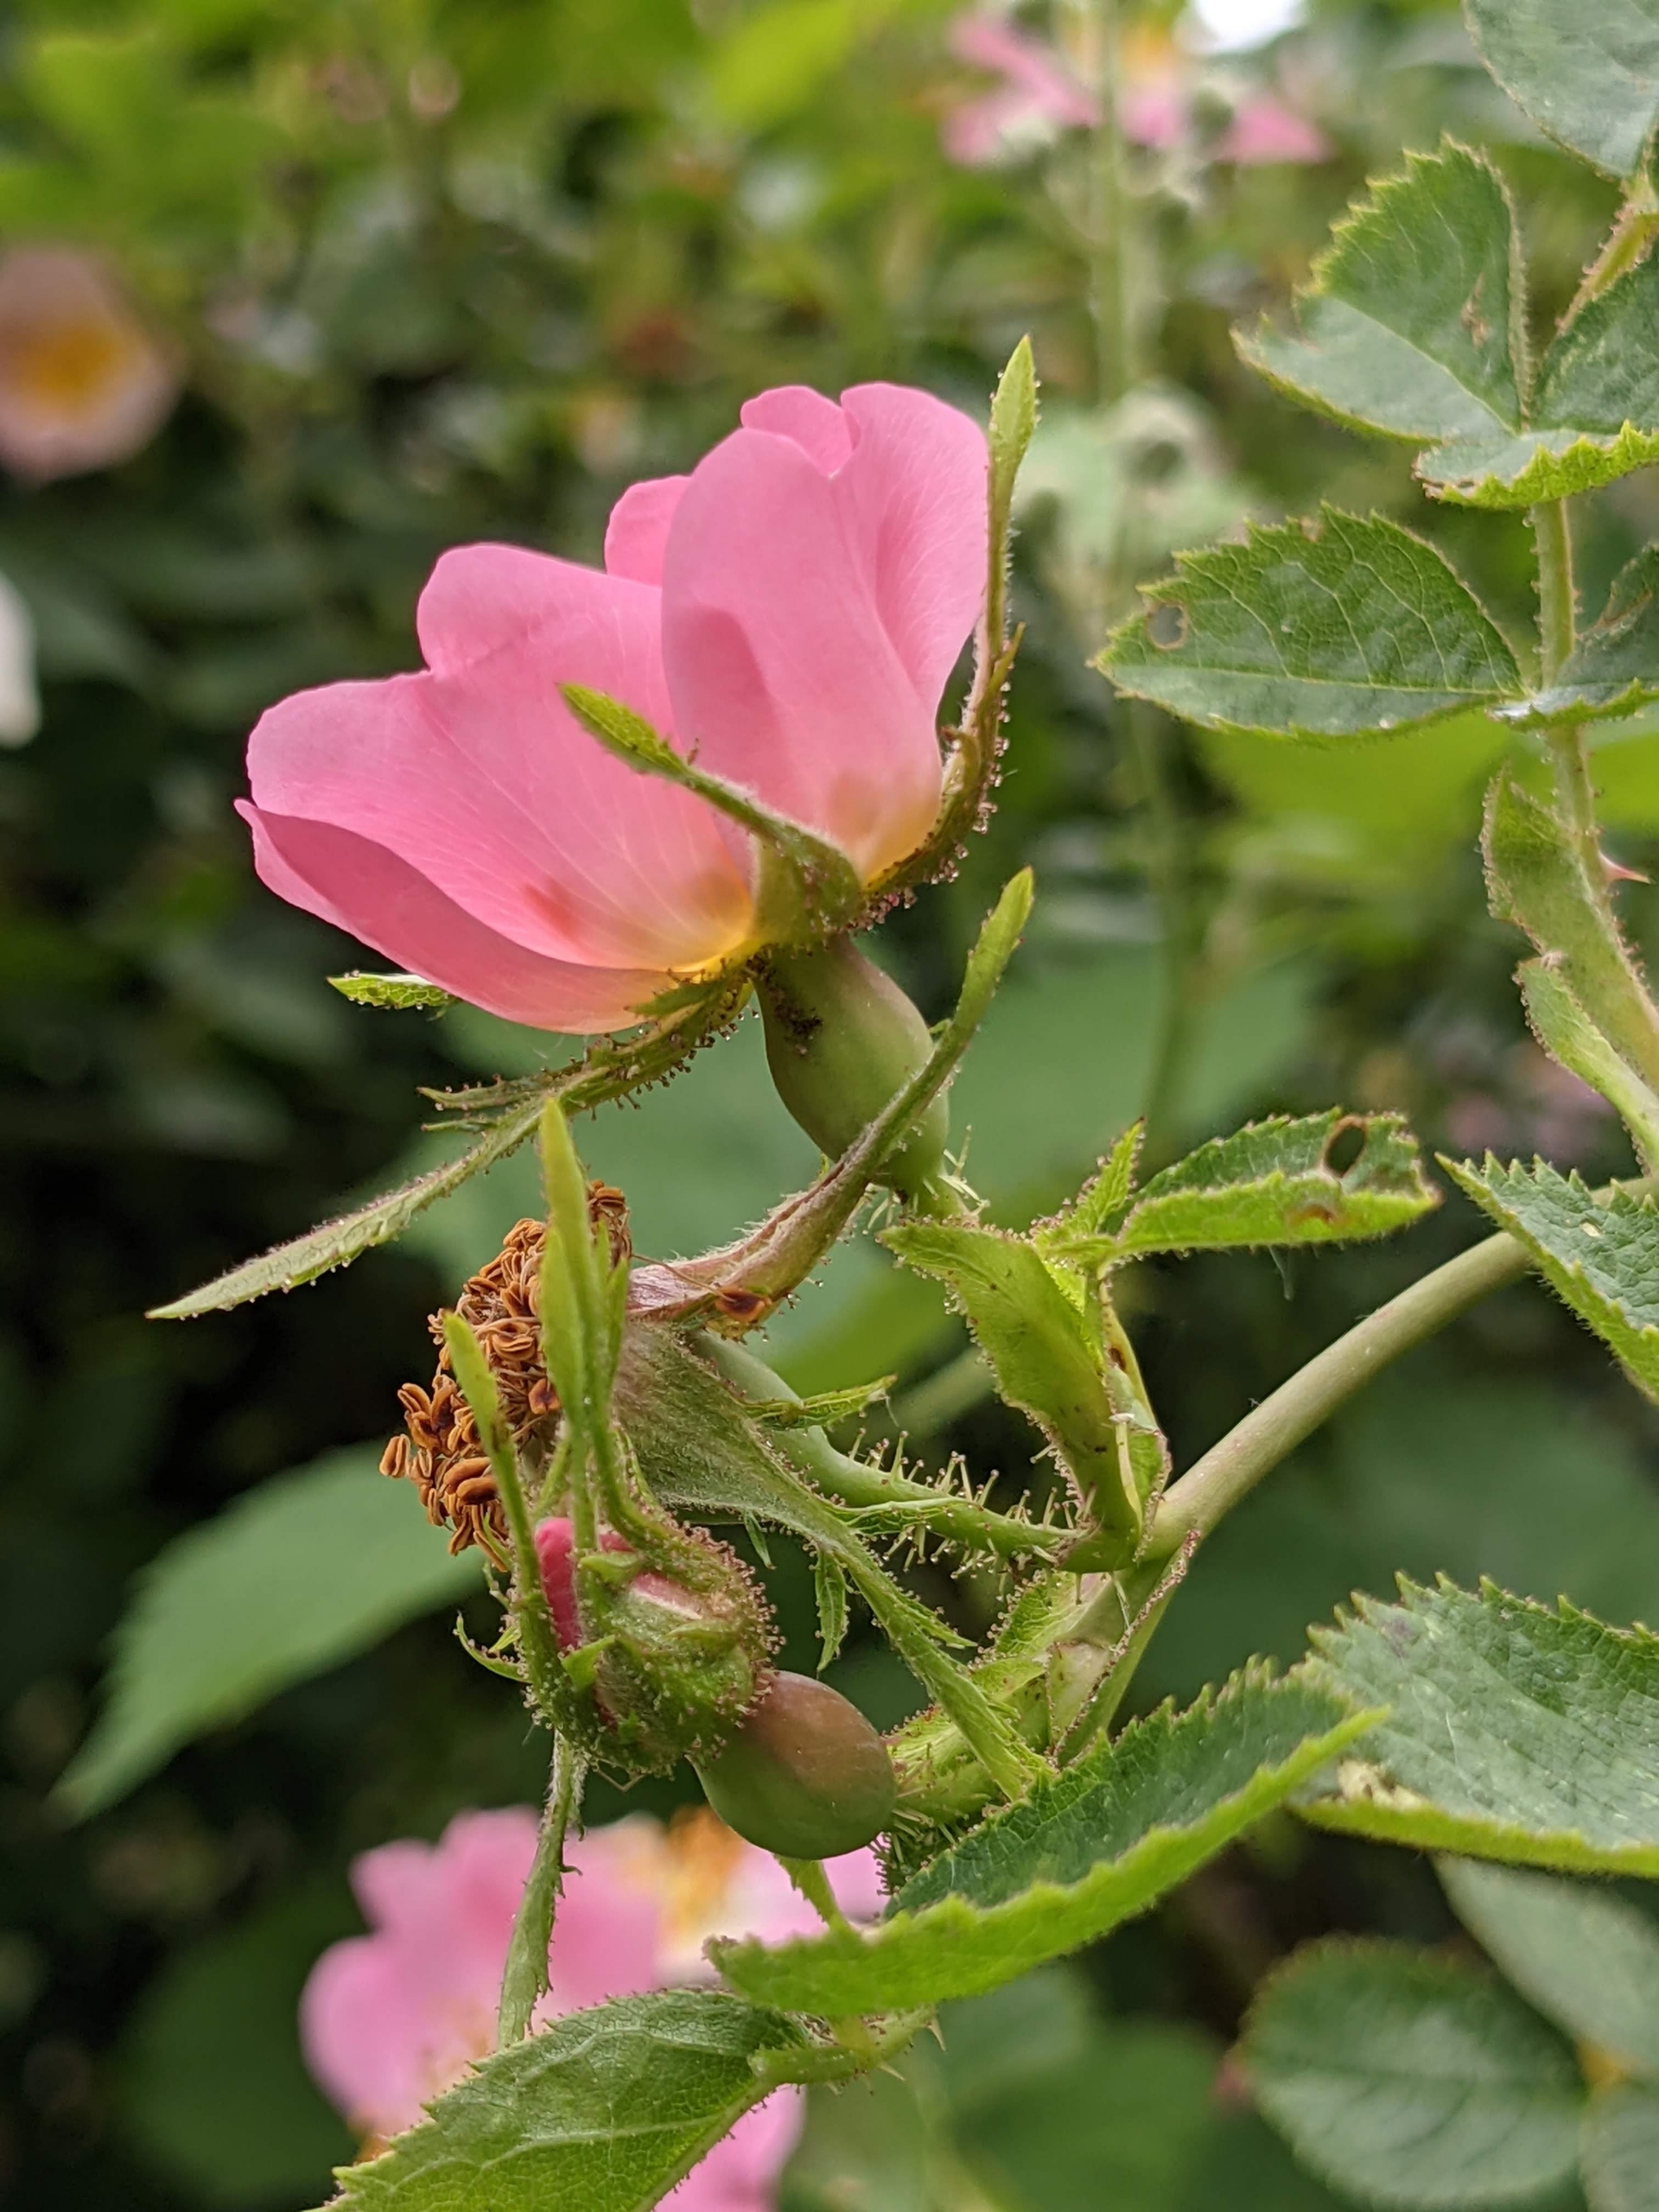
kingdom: Plantae
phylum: Tracheophyta
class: Magnoliopsida
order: Rosales
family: Rosaceae
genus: Rosa
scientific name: Rosa rubiginosa
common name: Æble-rose
